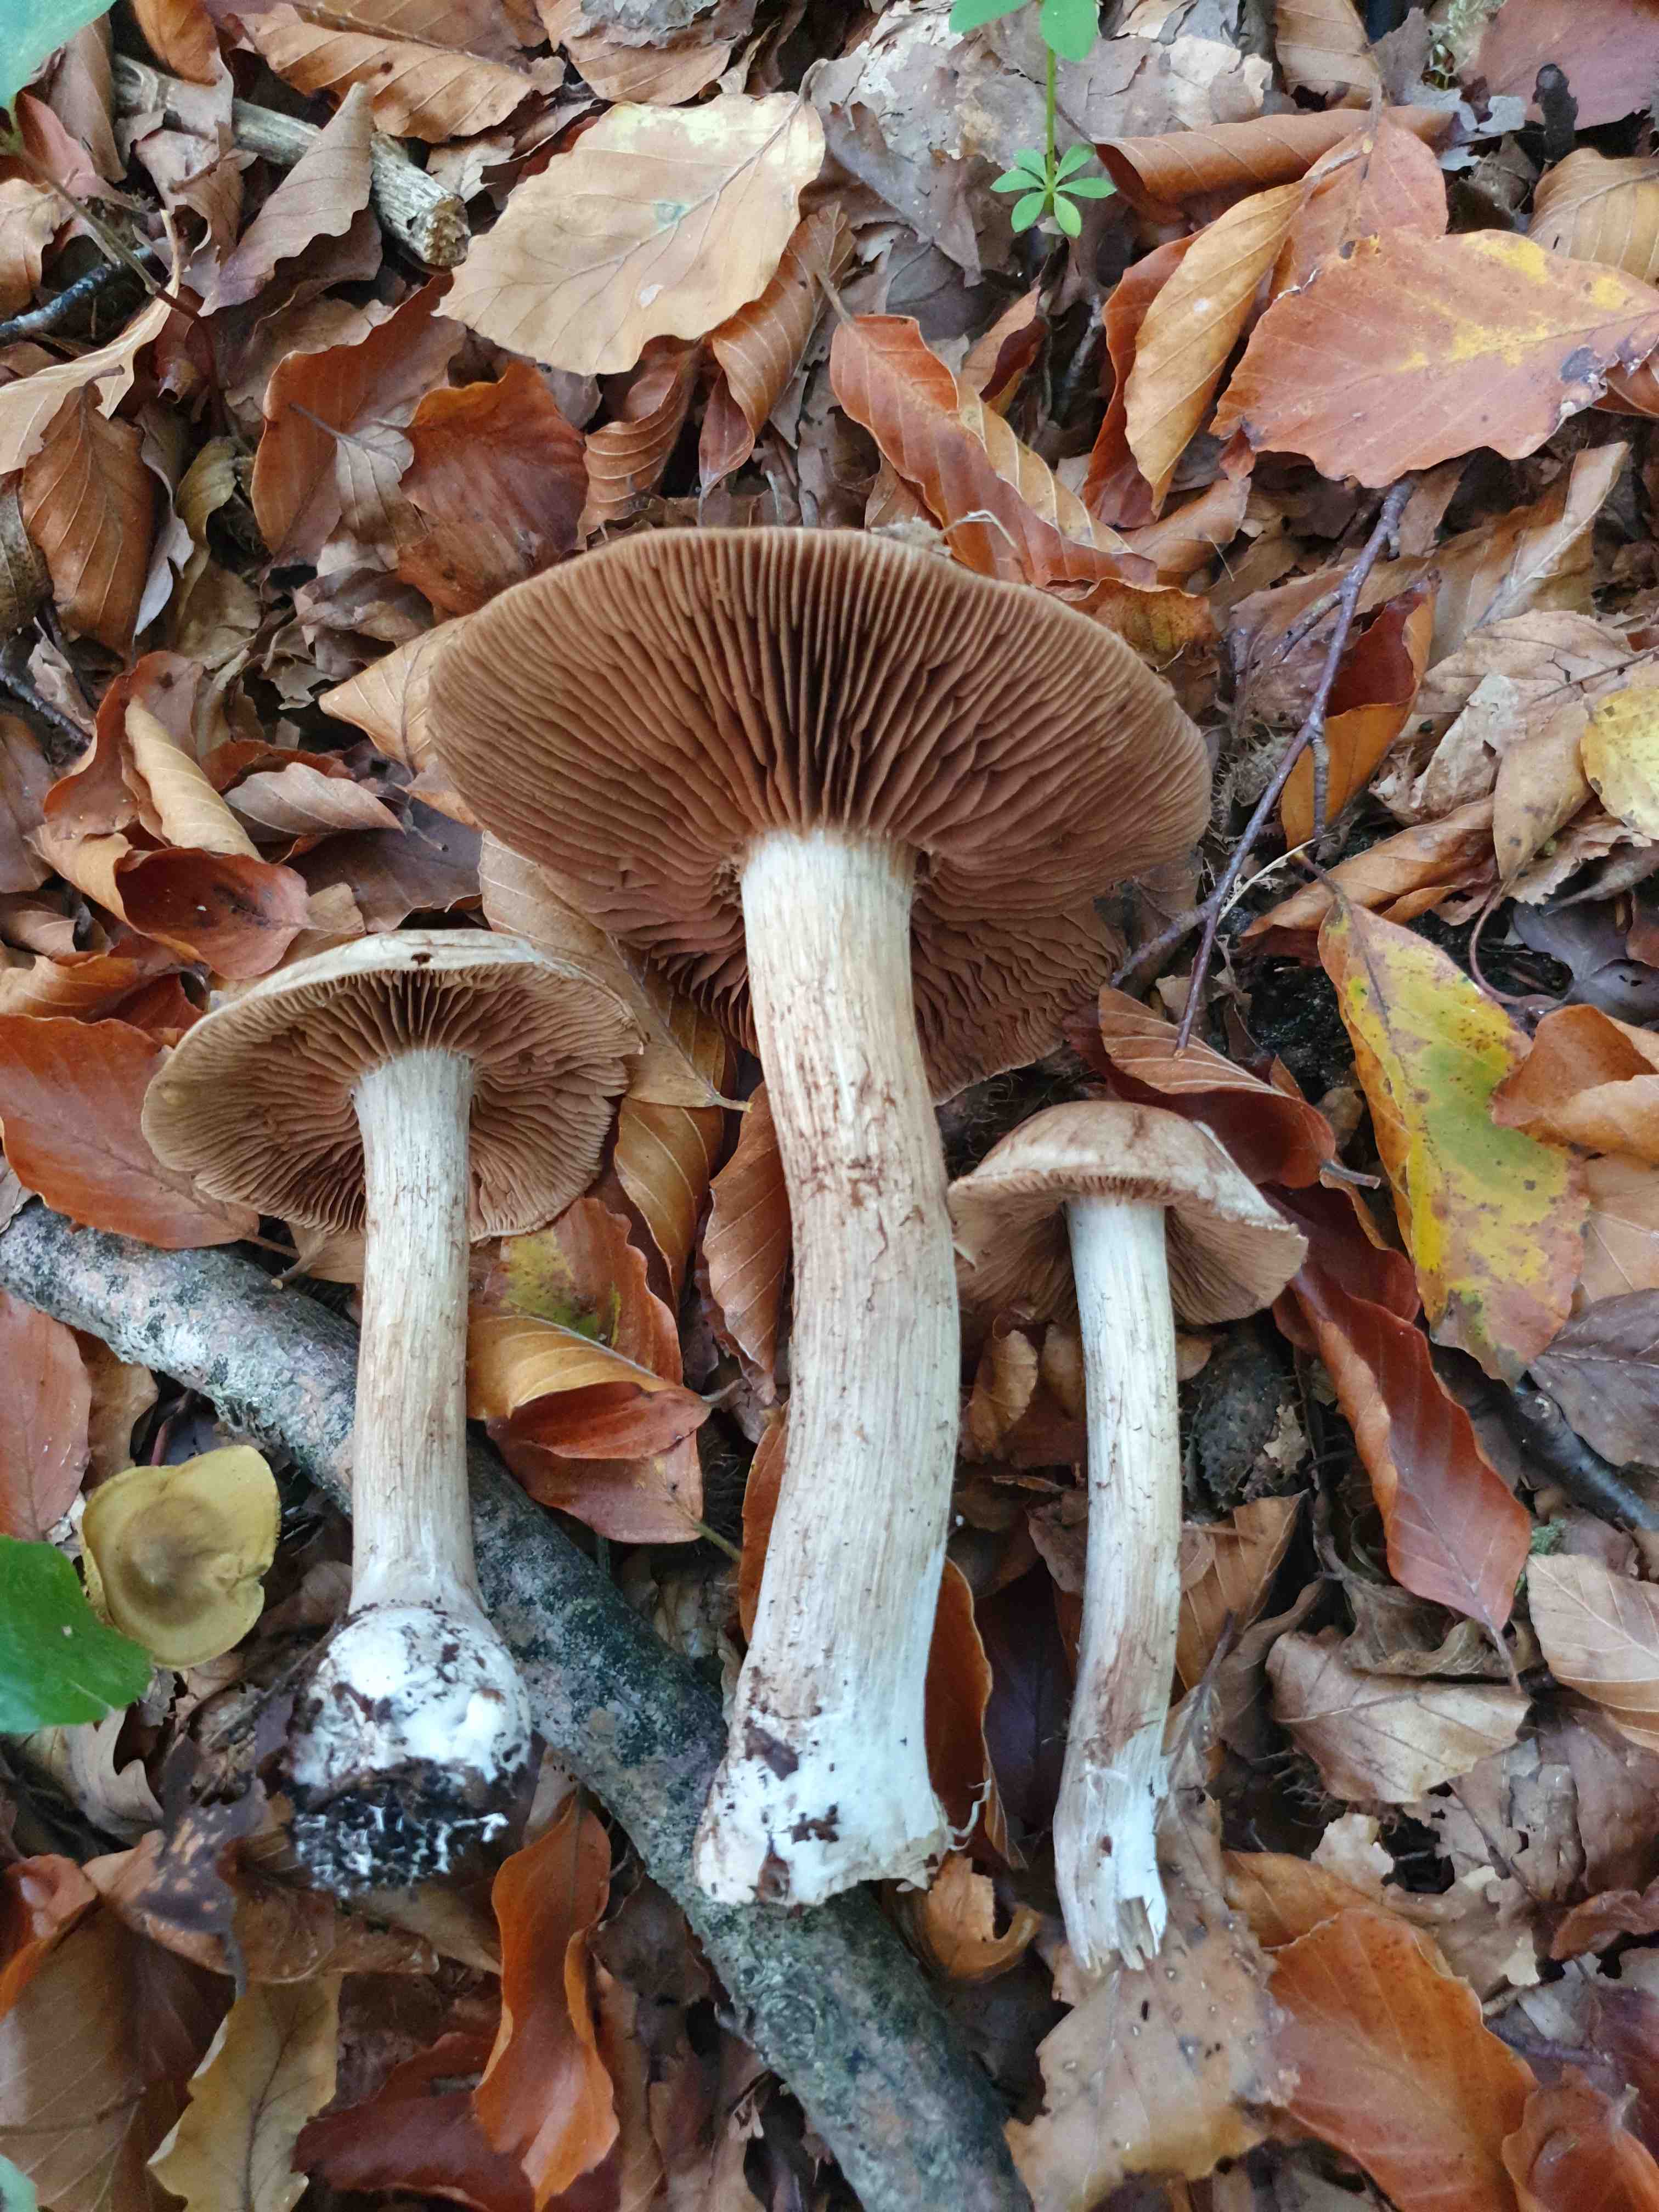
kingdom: Fungi
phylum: Basidiomycota
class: Agaricomycetes
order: Agaricales
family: Cortinariaceae
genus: Cortinarius
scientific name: Cortinarius
